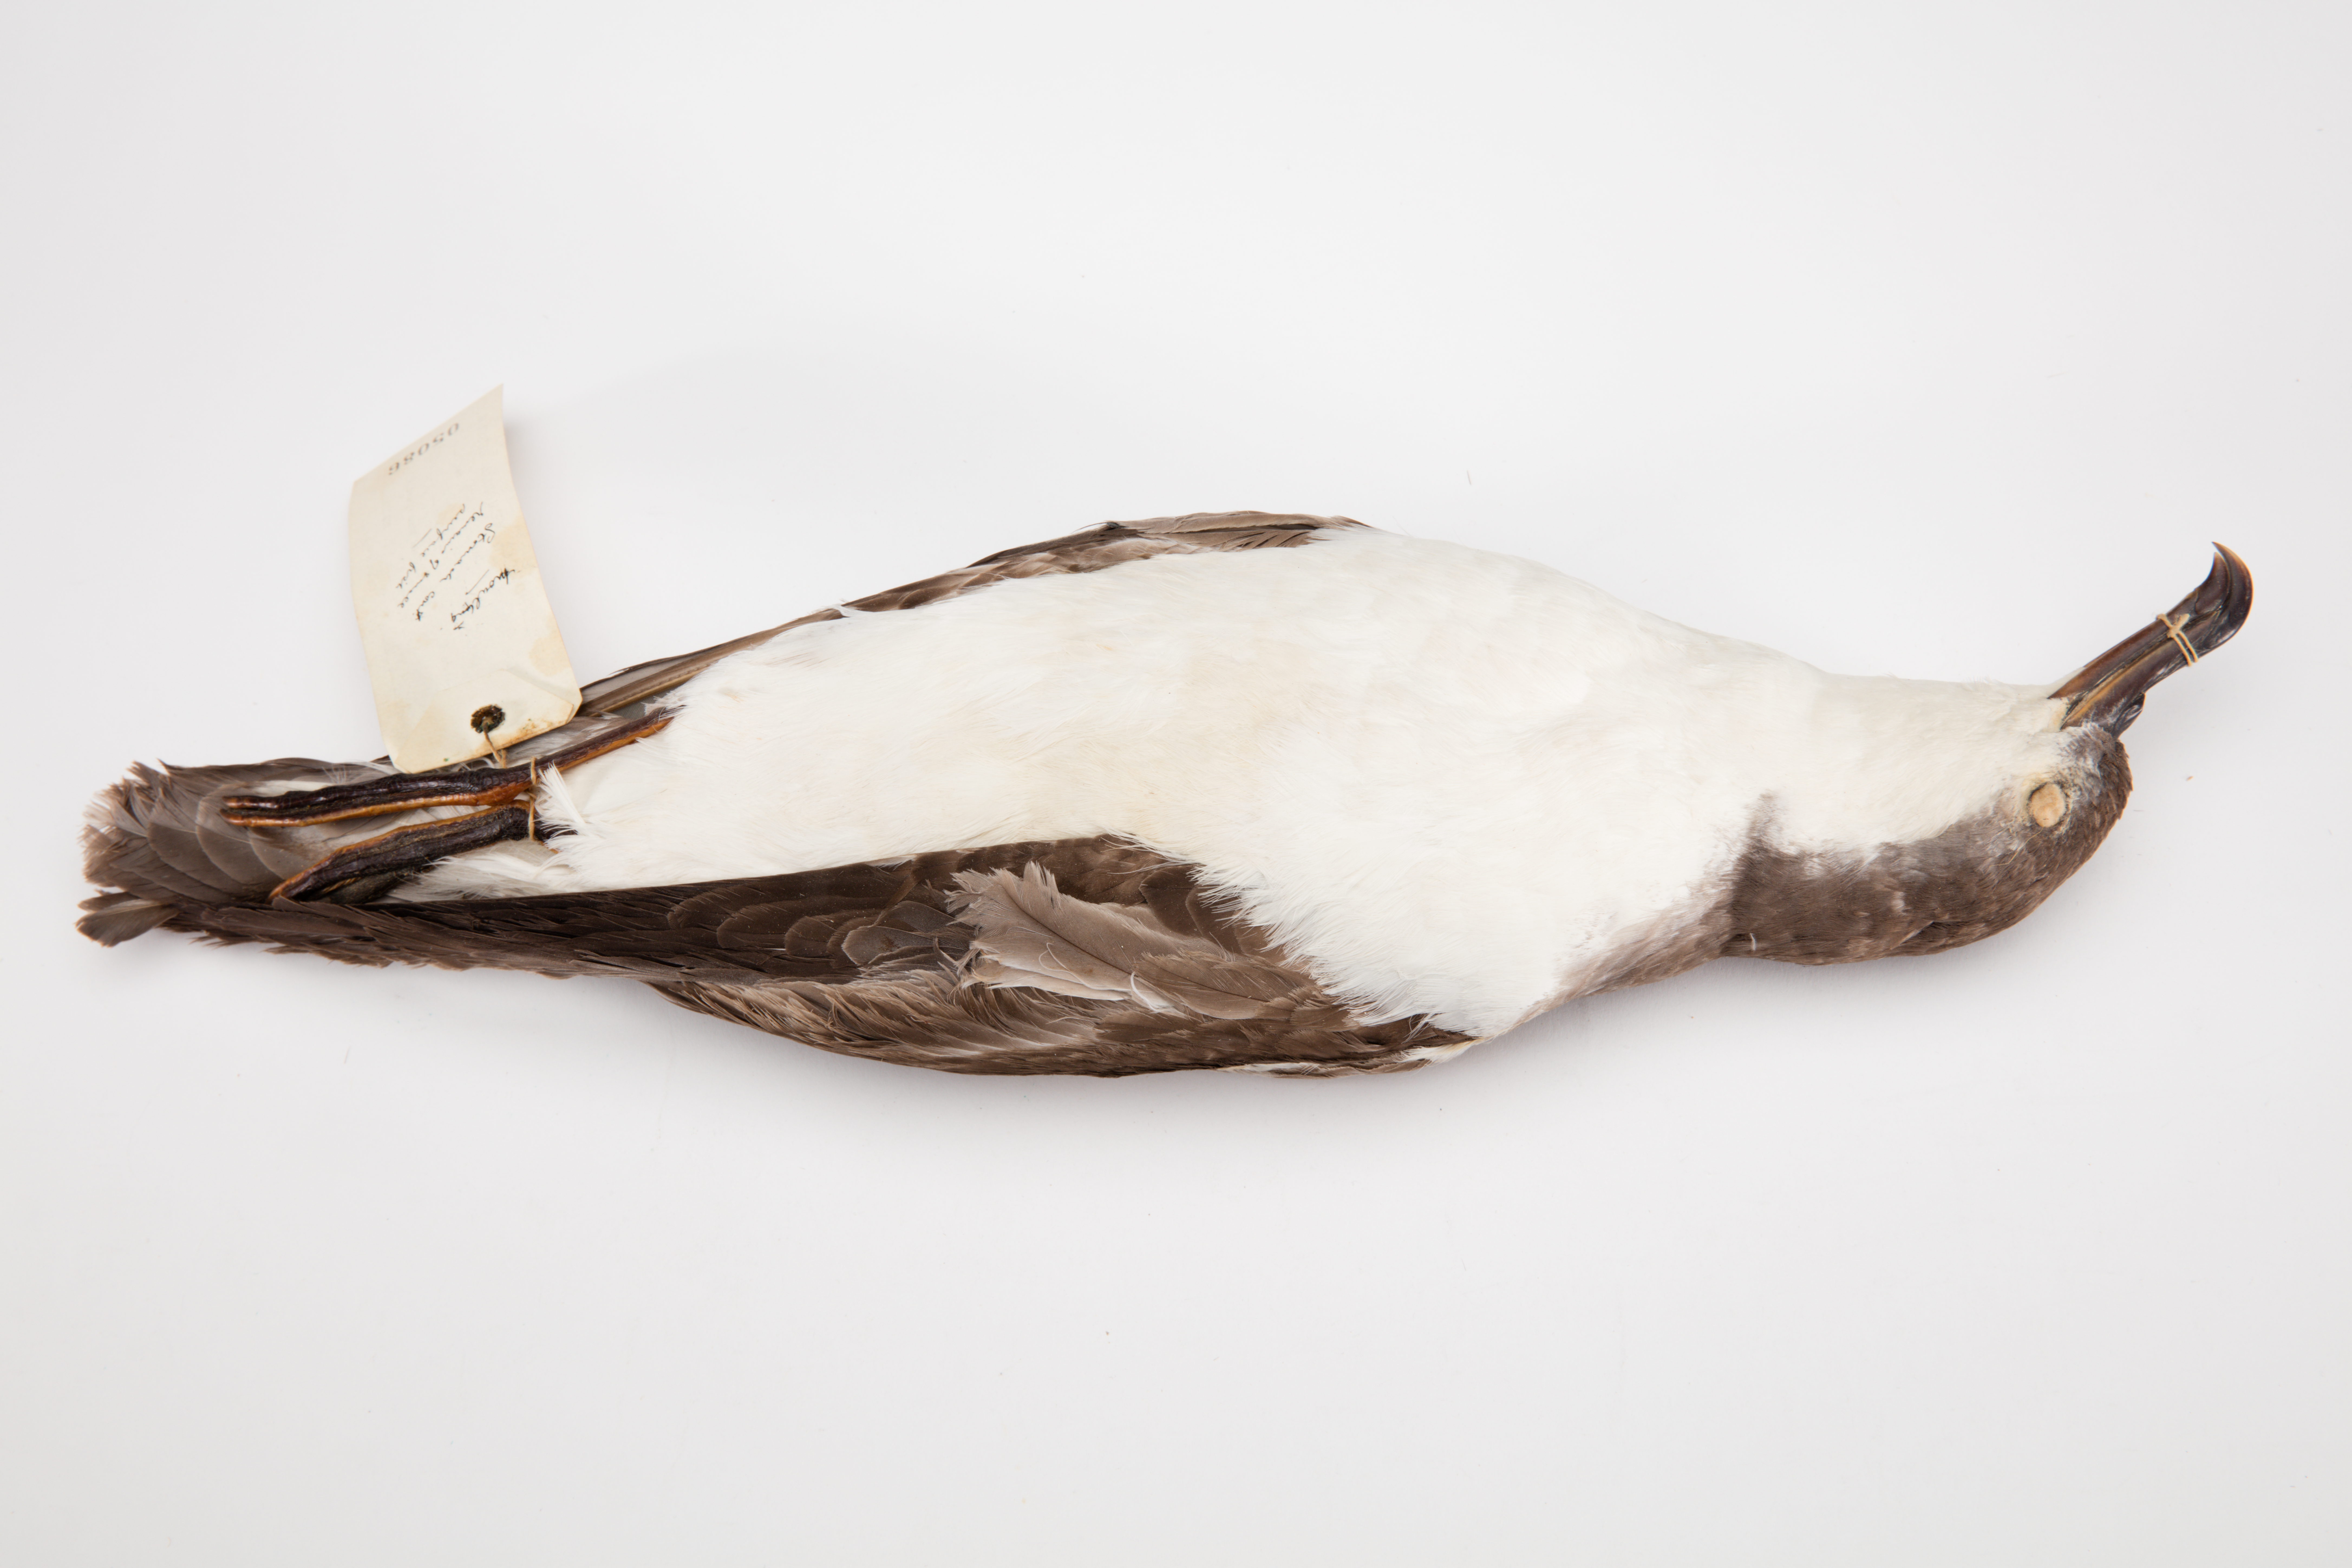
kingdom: Animalia
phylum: Chordata
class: Aves
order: Procellariiformes
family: Procellariidae
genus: Ardenna
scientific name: Ardenna
